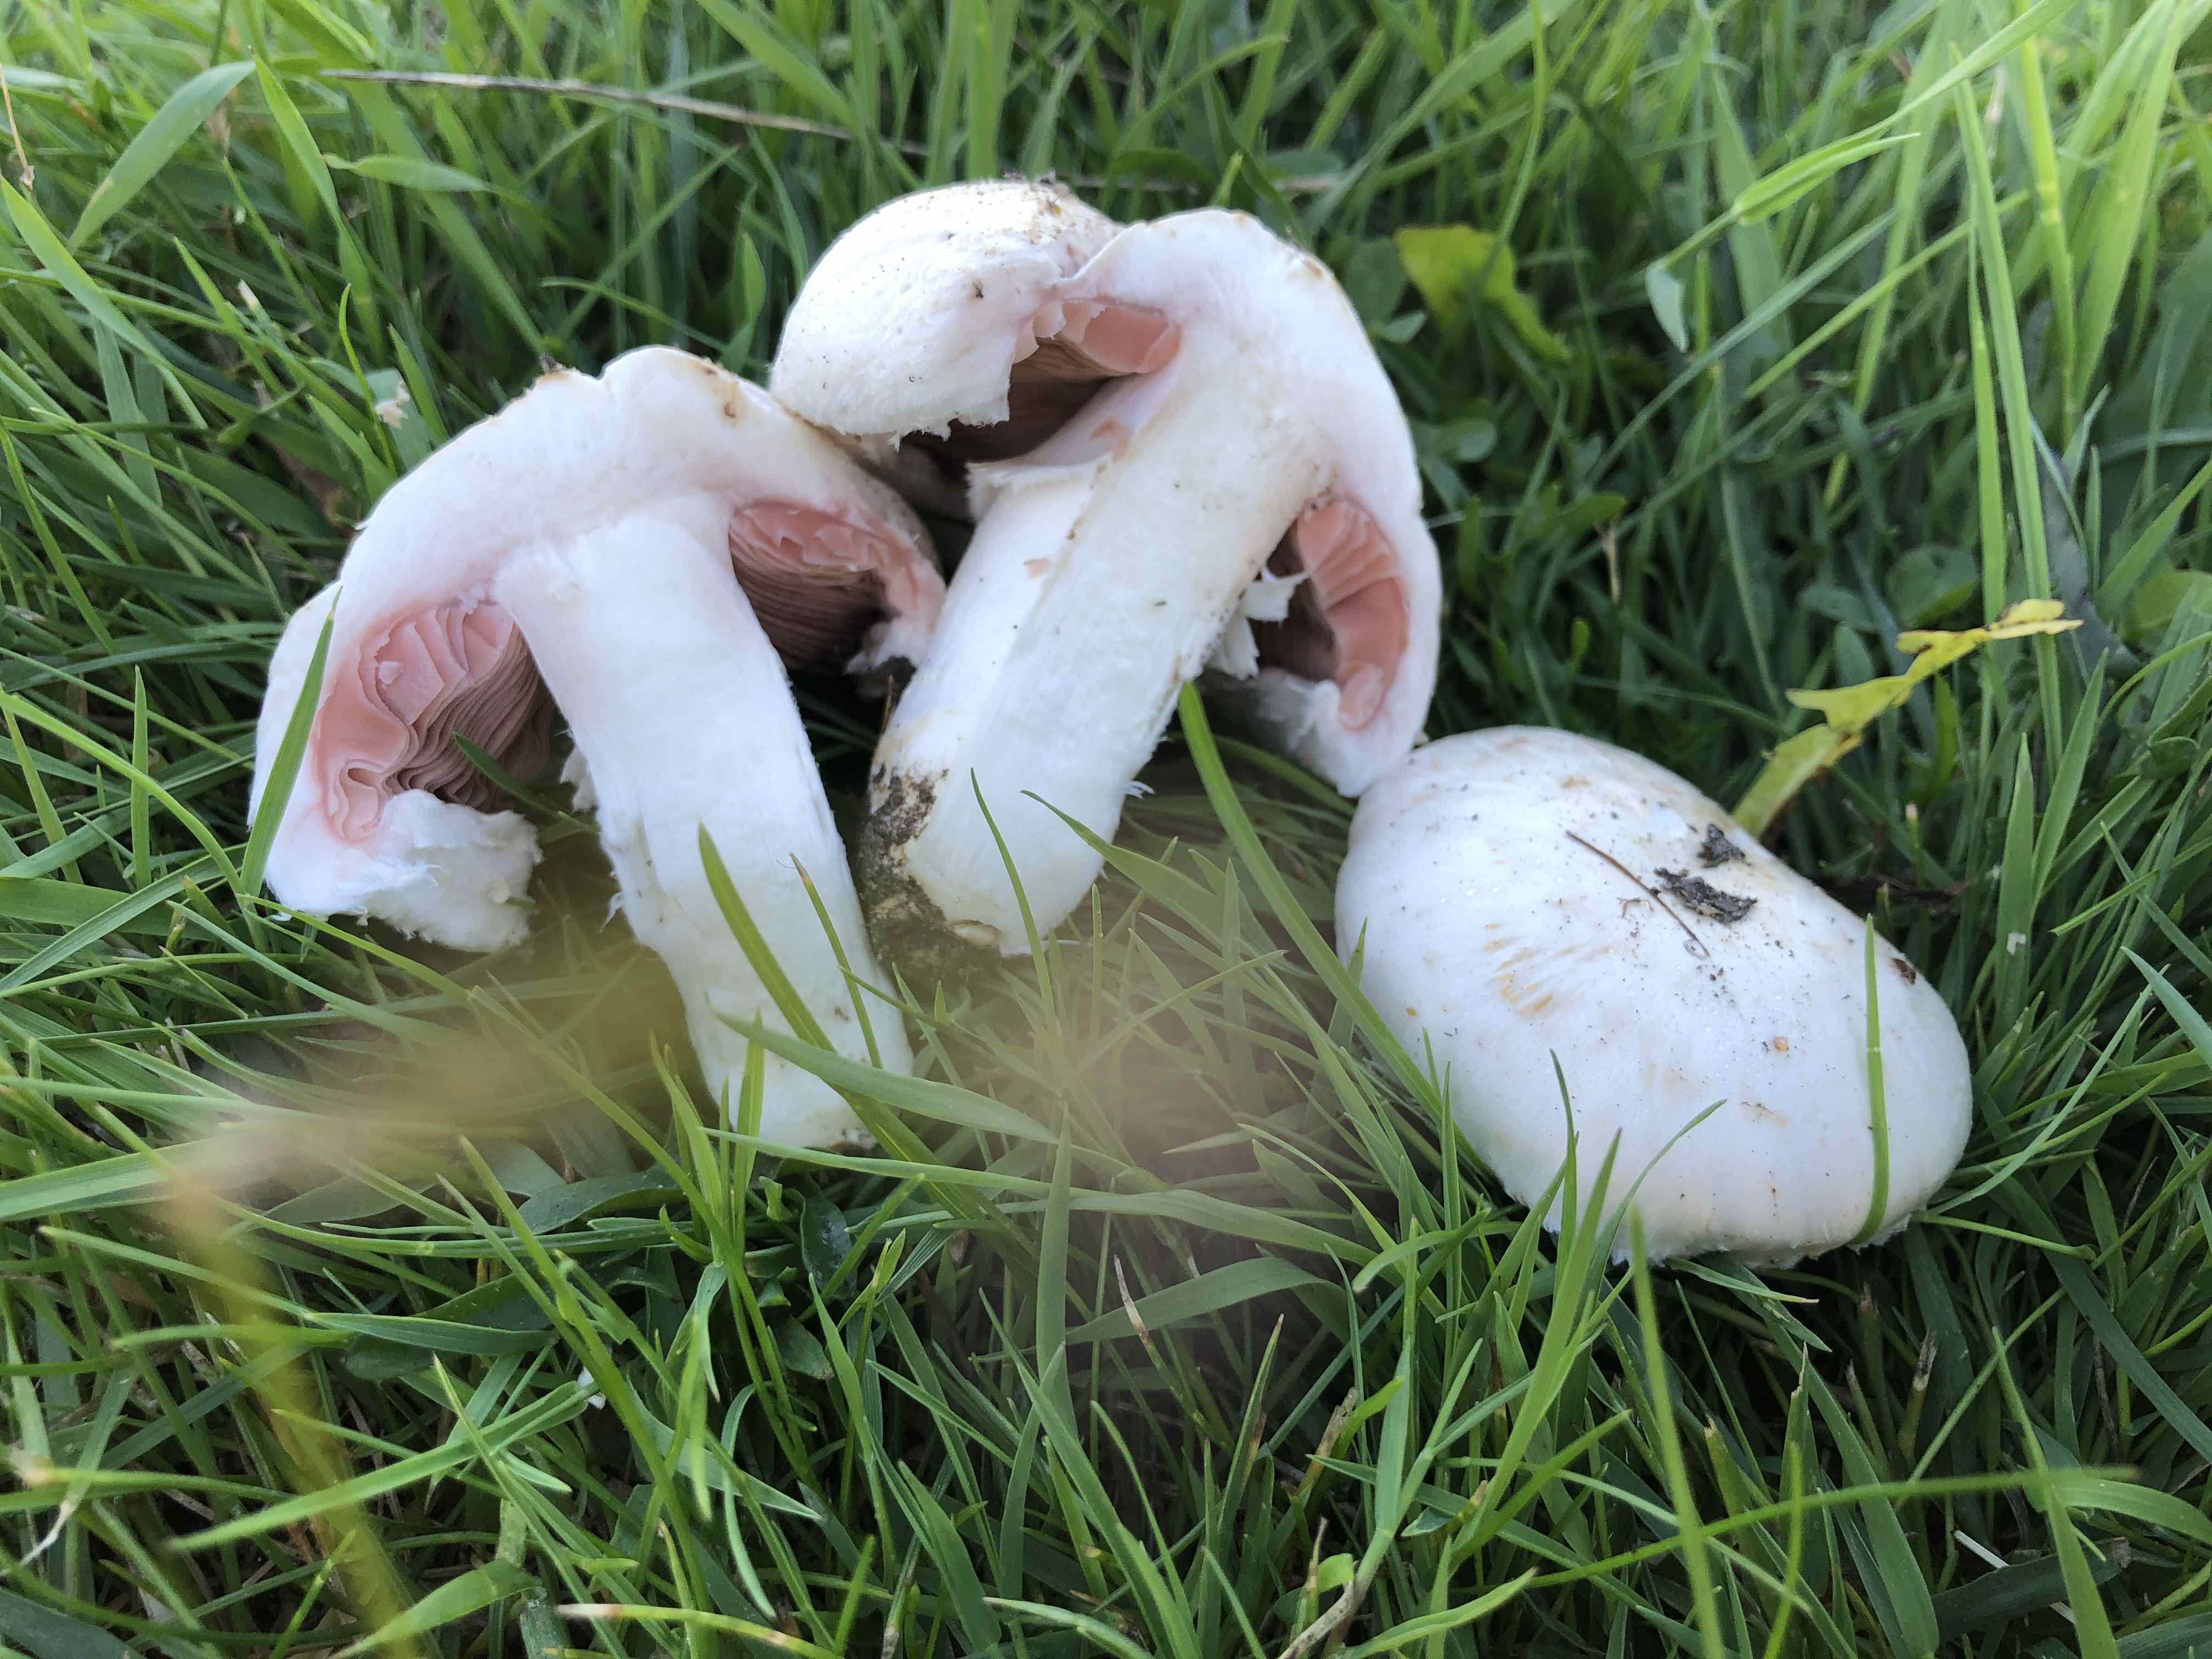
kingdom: Fungi
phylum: Basidiomycota
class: Agaricomycetes
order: Agaricales
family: Agaricaceae
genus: Agaricus
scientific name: Agaricus campestris
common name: mark-champignon
